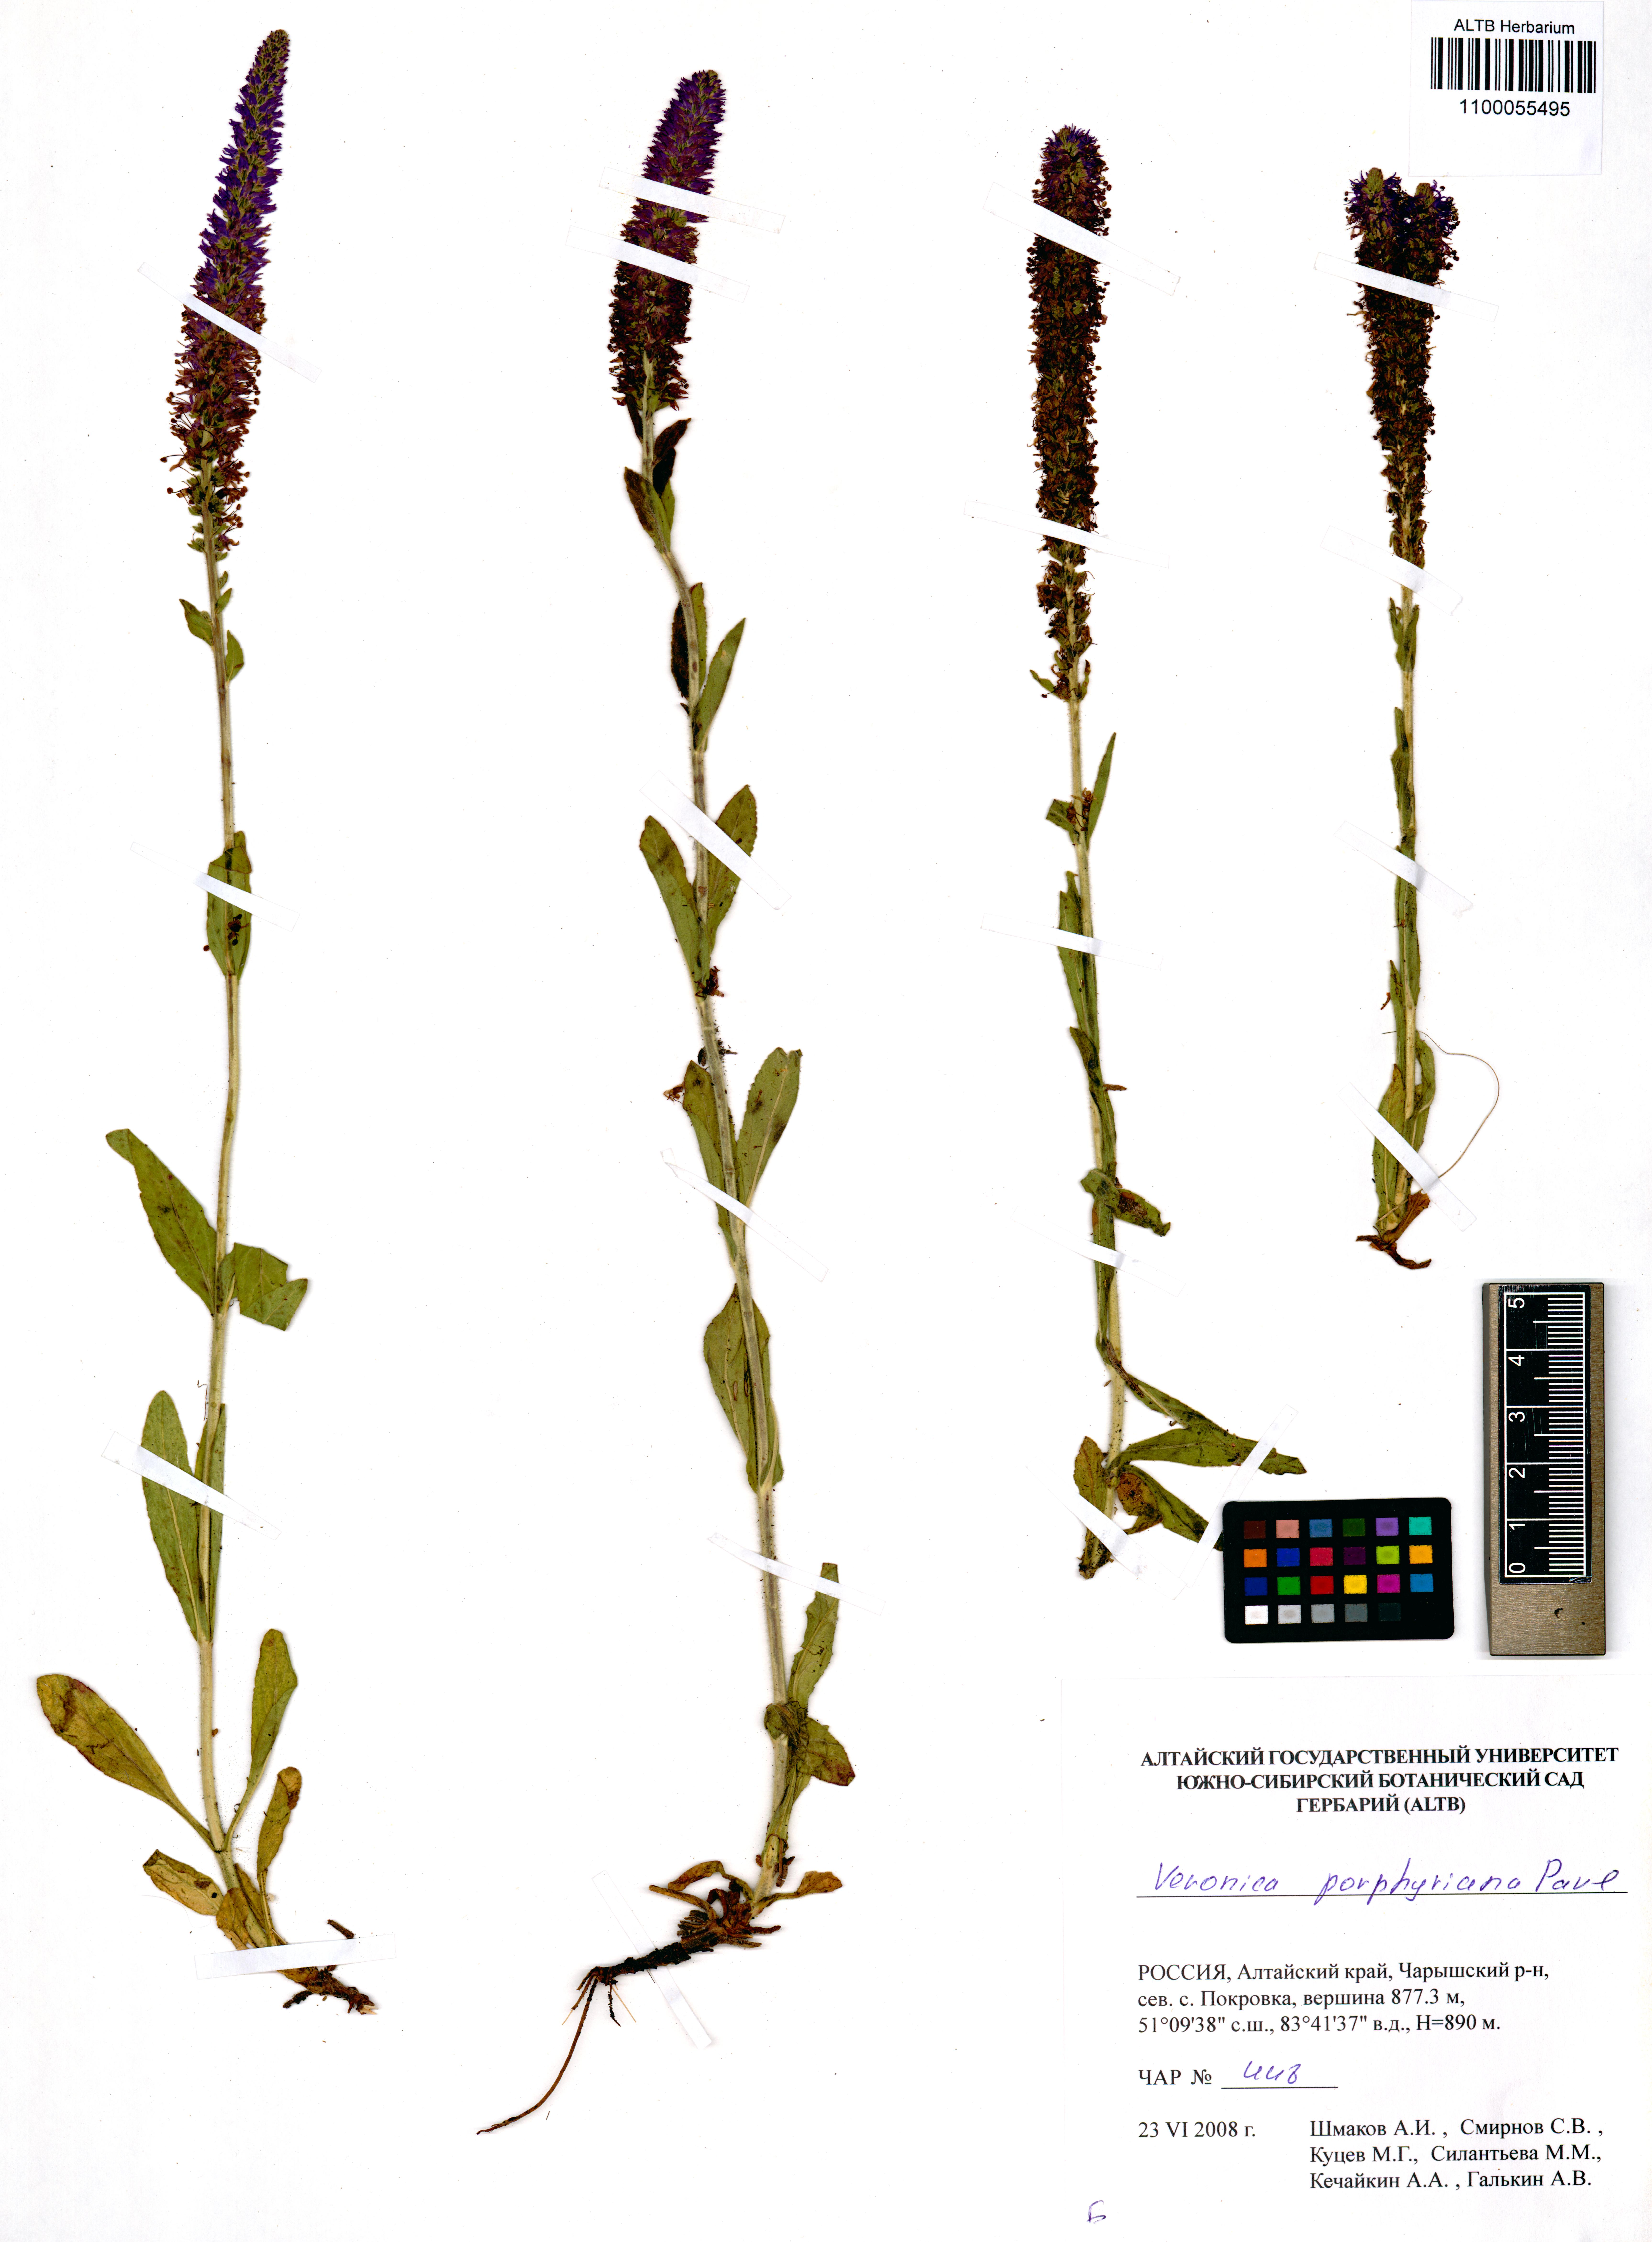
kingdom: Plantae
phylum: Tracheophyta
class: Magnoliopsida
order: Lamiales
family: Plantaginaceae
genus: Veronica
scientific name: Veronica porphyriana
